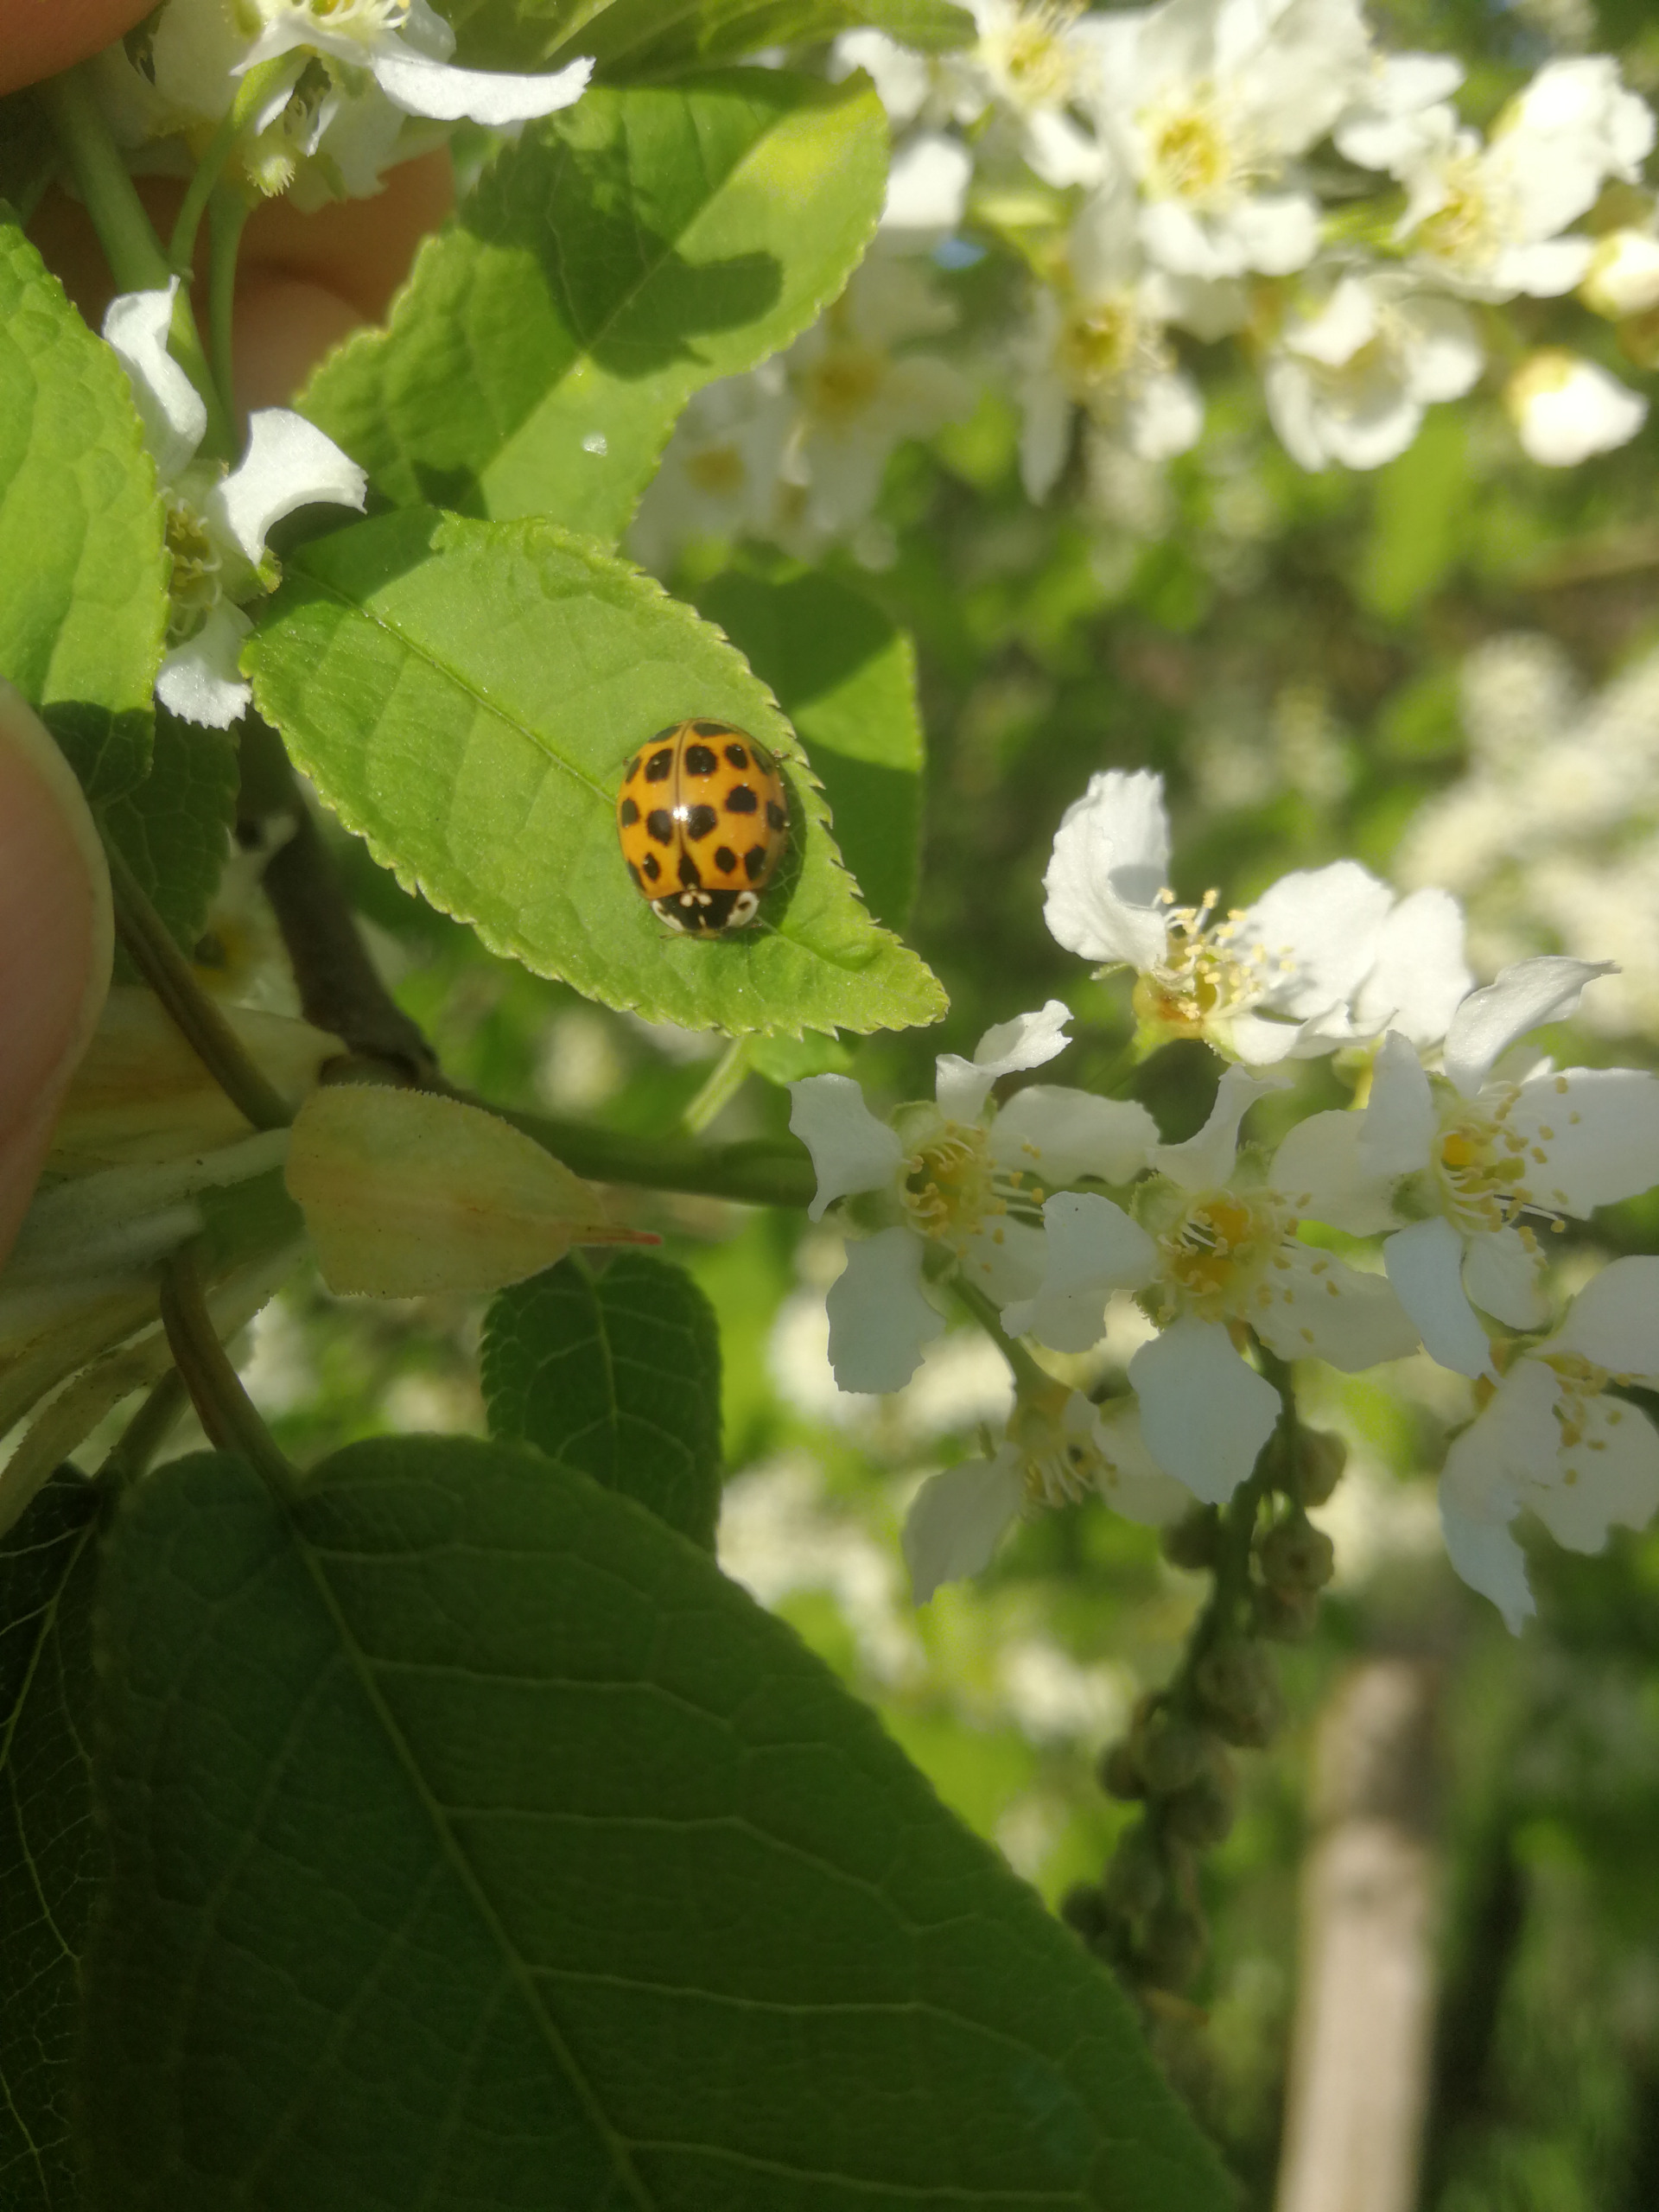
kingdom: Animalia
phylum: Arthropoda
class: Insecta
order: Coleoptera
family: Coccinellidae
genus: Harmonia
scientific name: Harmonia axyridis
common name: Harlekinmariehøne
